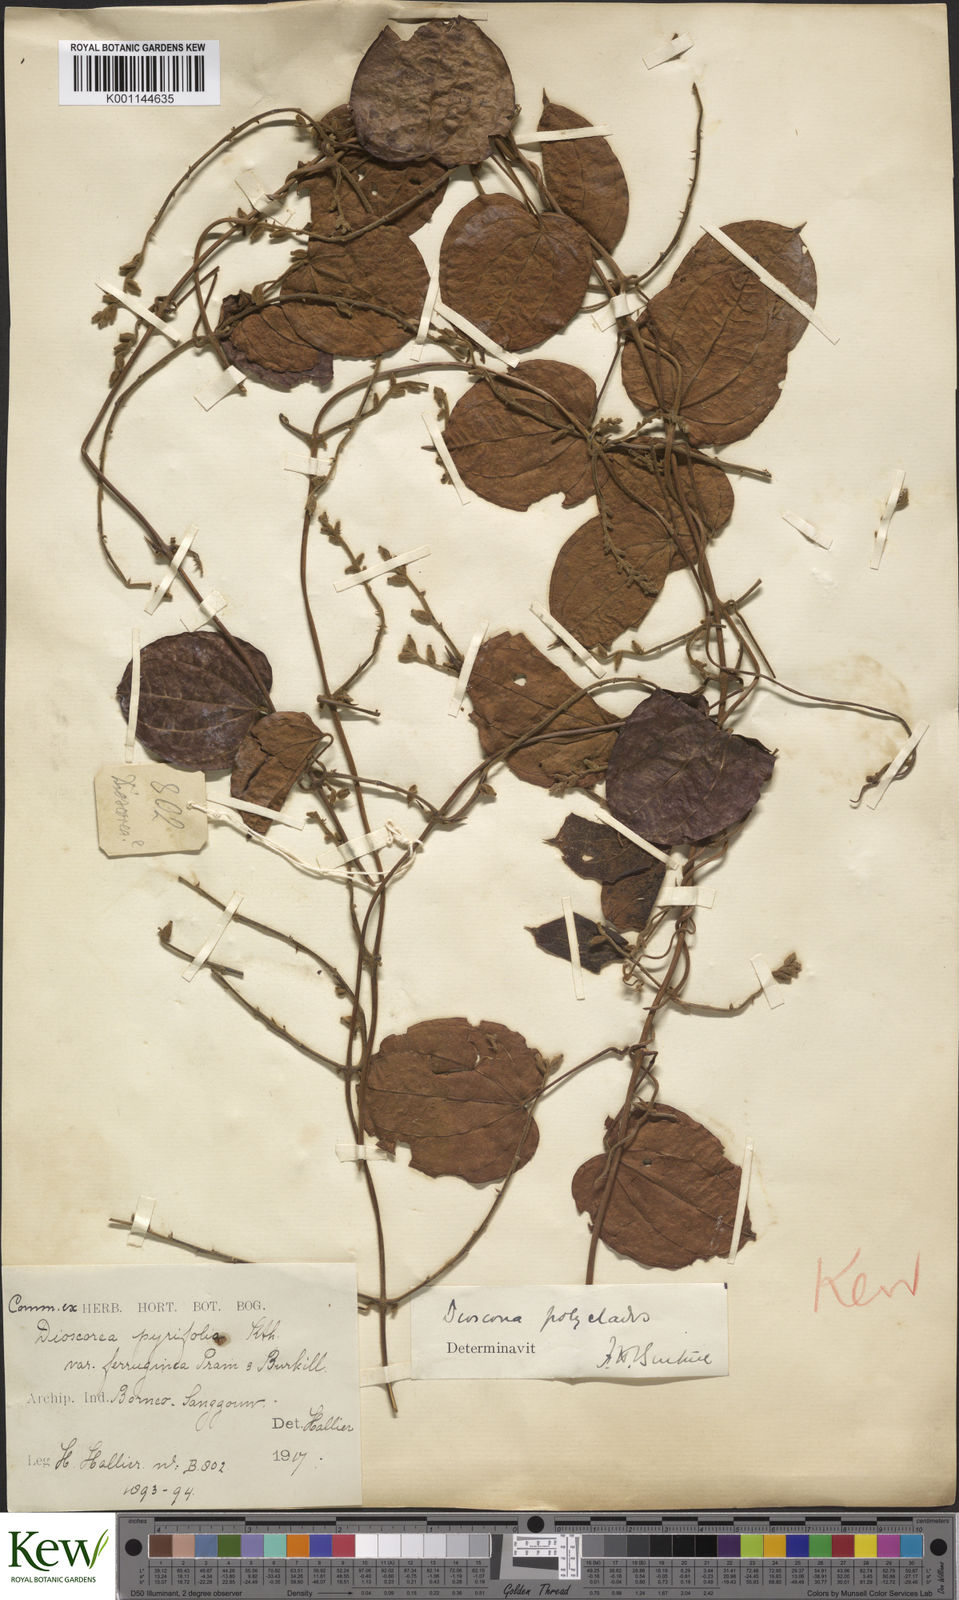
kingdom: Plantae
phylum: Tracheophyta
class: Liliopsida
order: Dioscoreales
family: Dioscoreaceae
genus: Dioscorea
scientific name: Dioscorea polyclados
